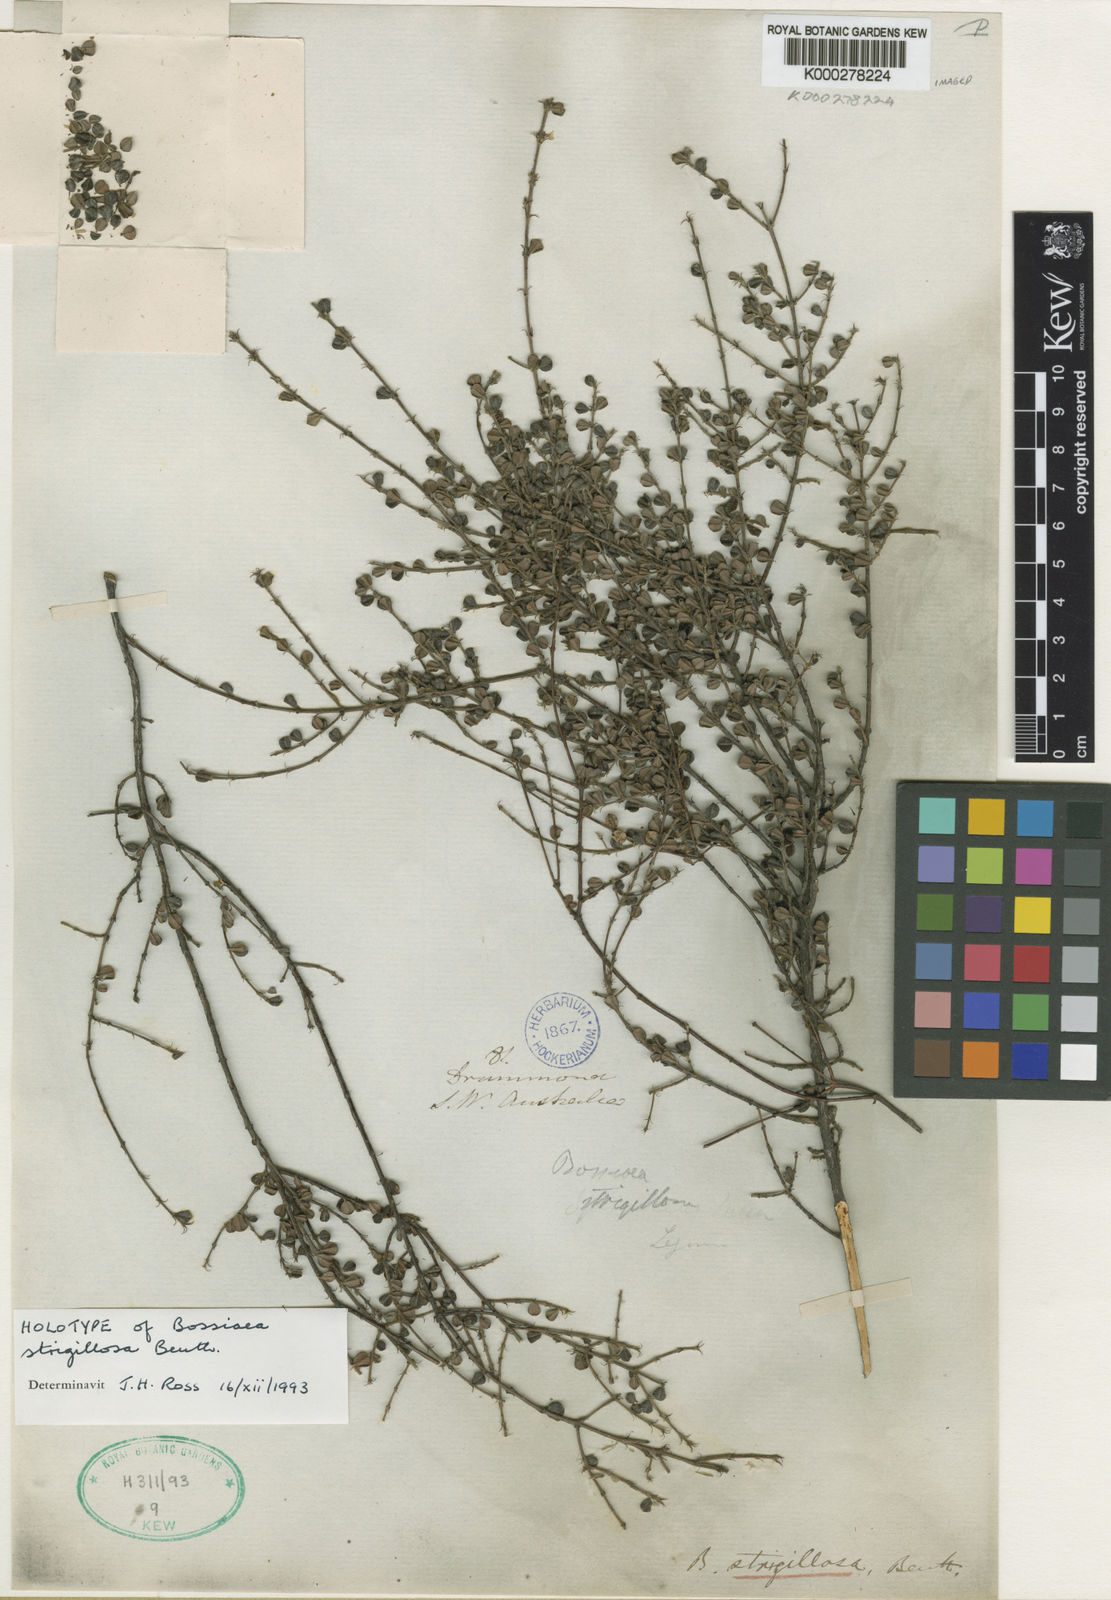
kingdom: Plantae
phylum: Tracheophyta
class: Magnoliopsida
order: Fabales
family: Fabaceae
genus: Pultenaea
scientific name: Pultenaea rotundifolia
